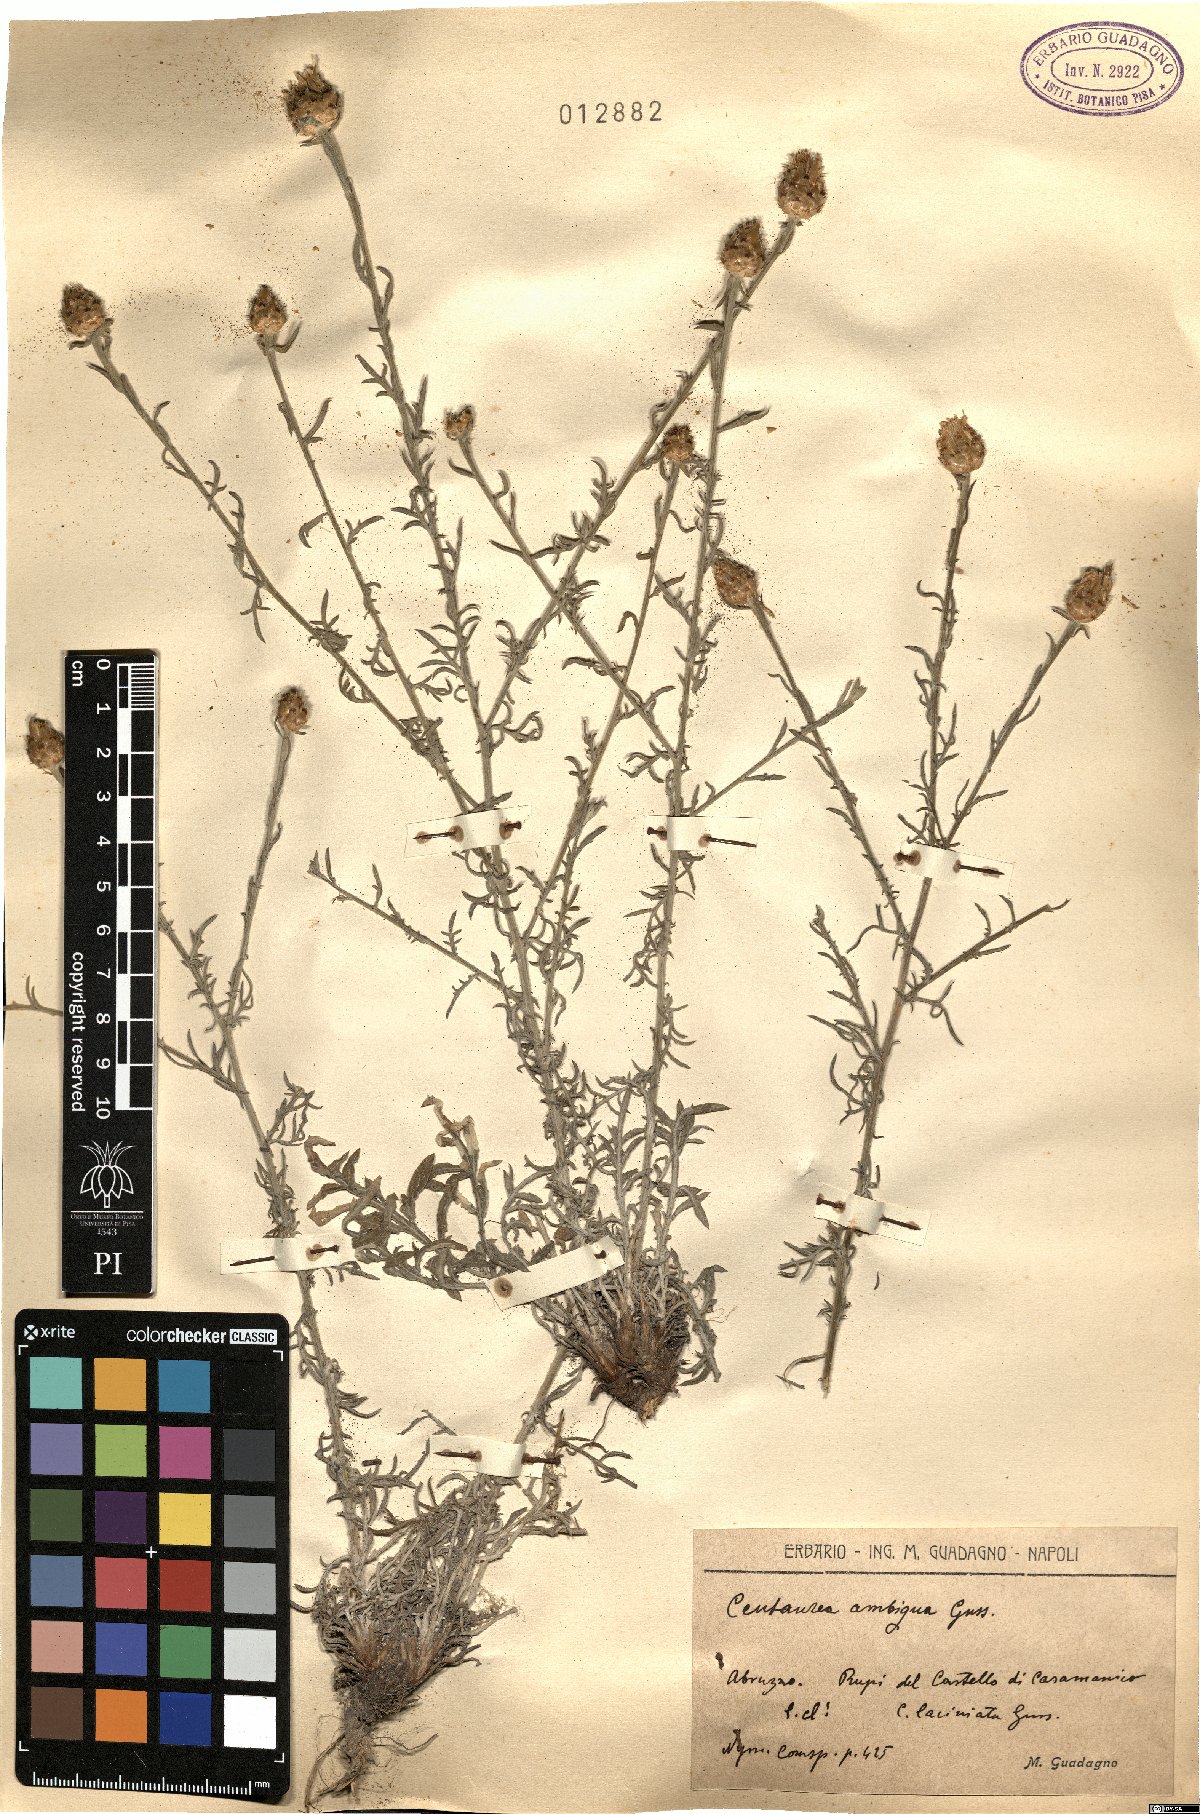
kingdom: Plantae
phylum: Tracheophyta
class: Magnoliopsida
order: Asterales
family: Asteraceae
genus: Centaurea
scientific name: Centaurea ambigua
